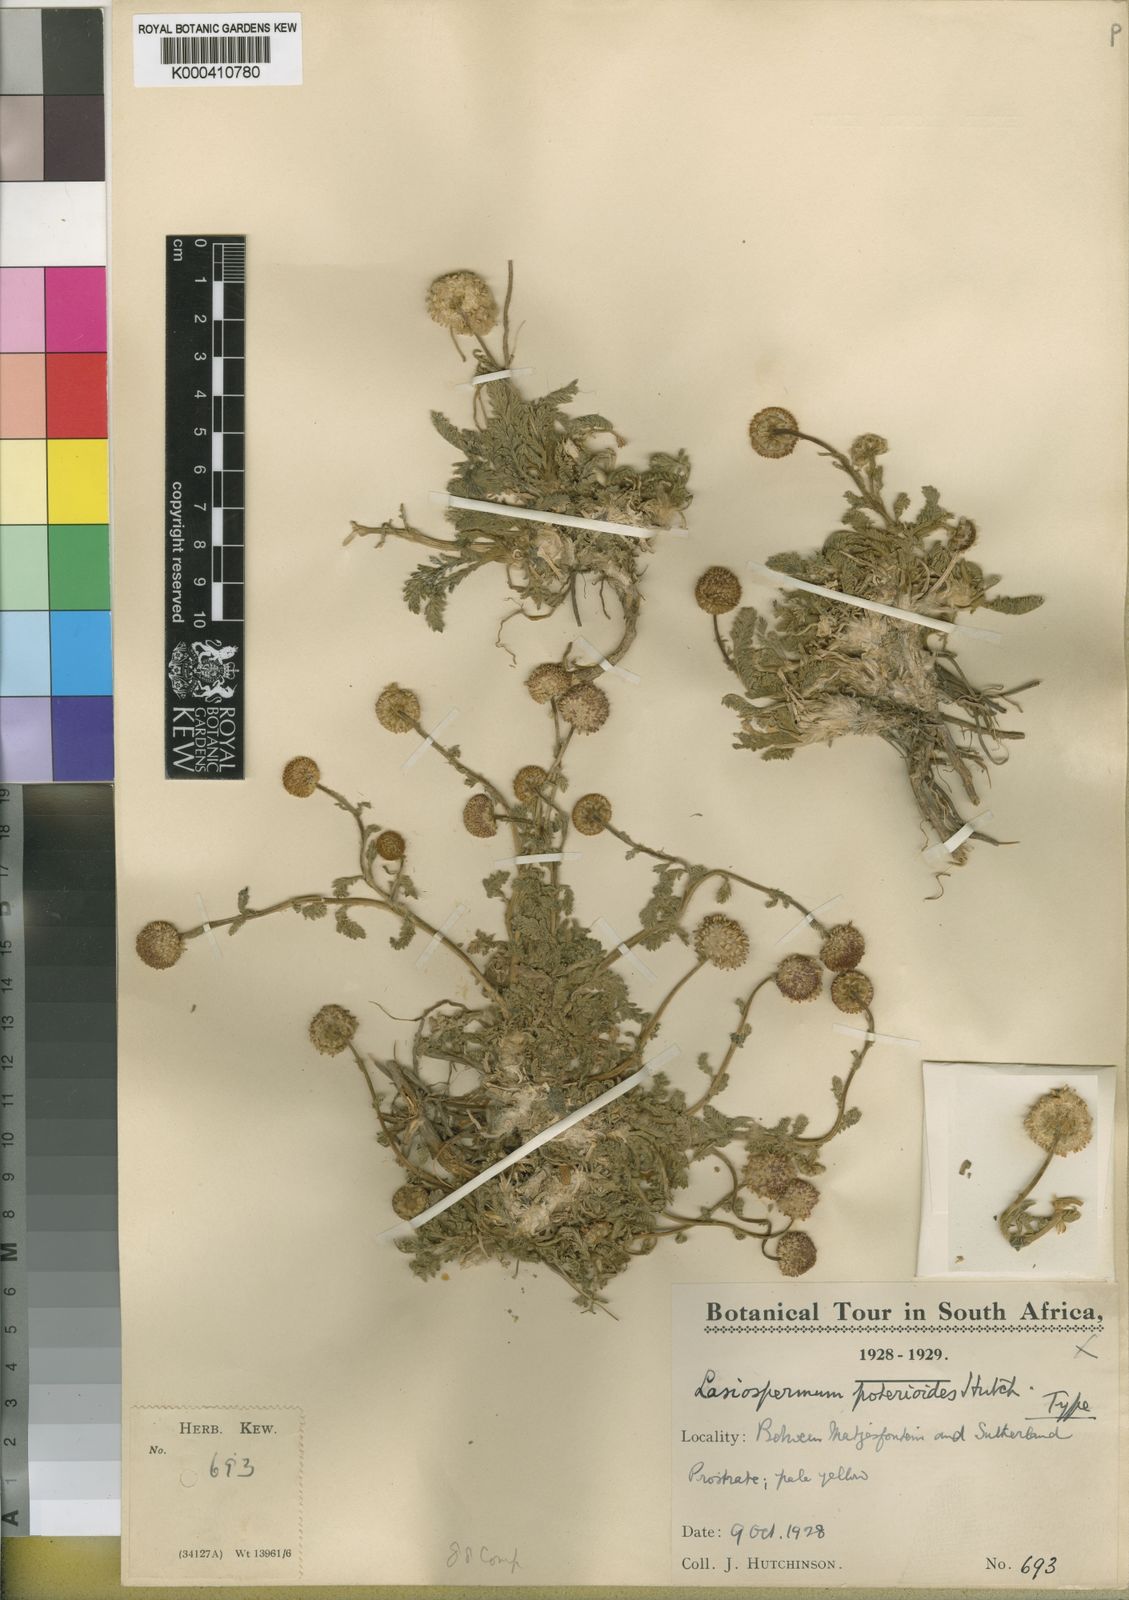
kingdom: Plantae
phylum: Tracheophyta
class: Magnoliopsida
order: Asterales
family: Asteraceae
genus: Lasiospermum
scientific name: Lasiospermum poterioides
